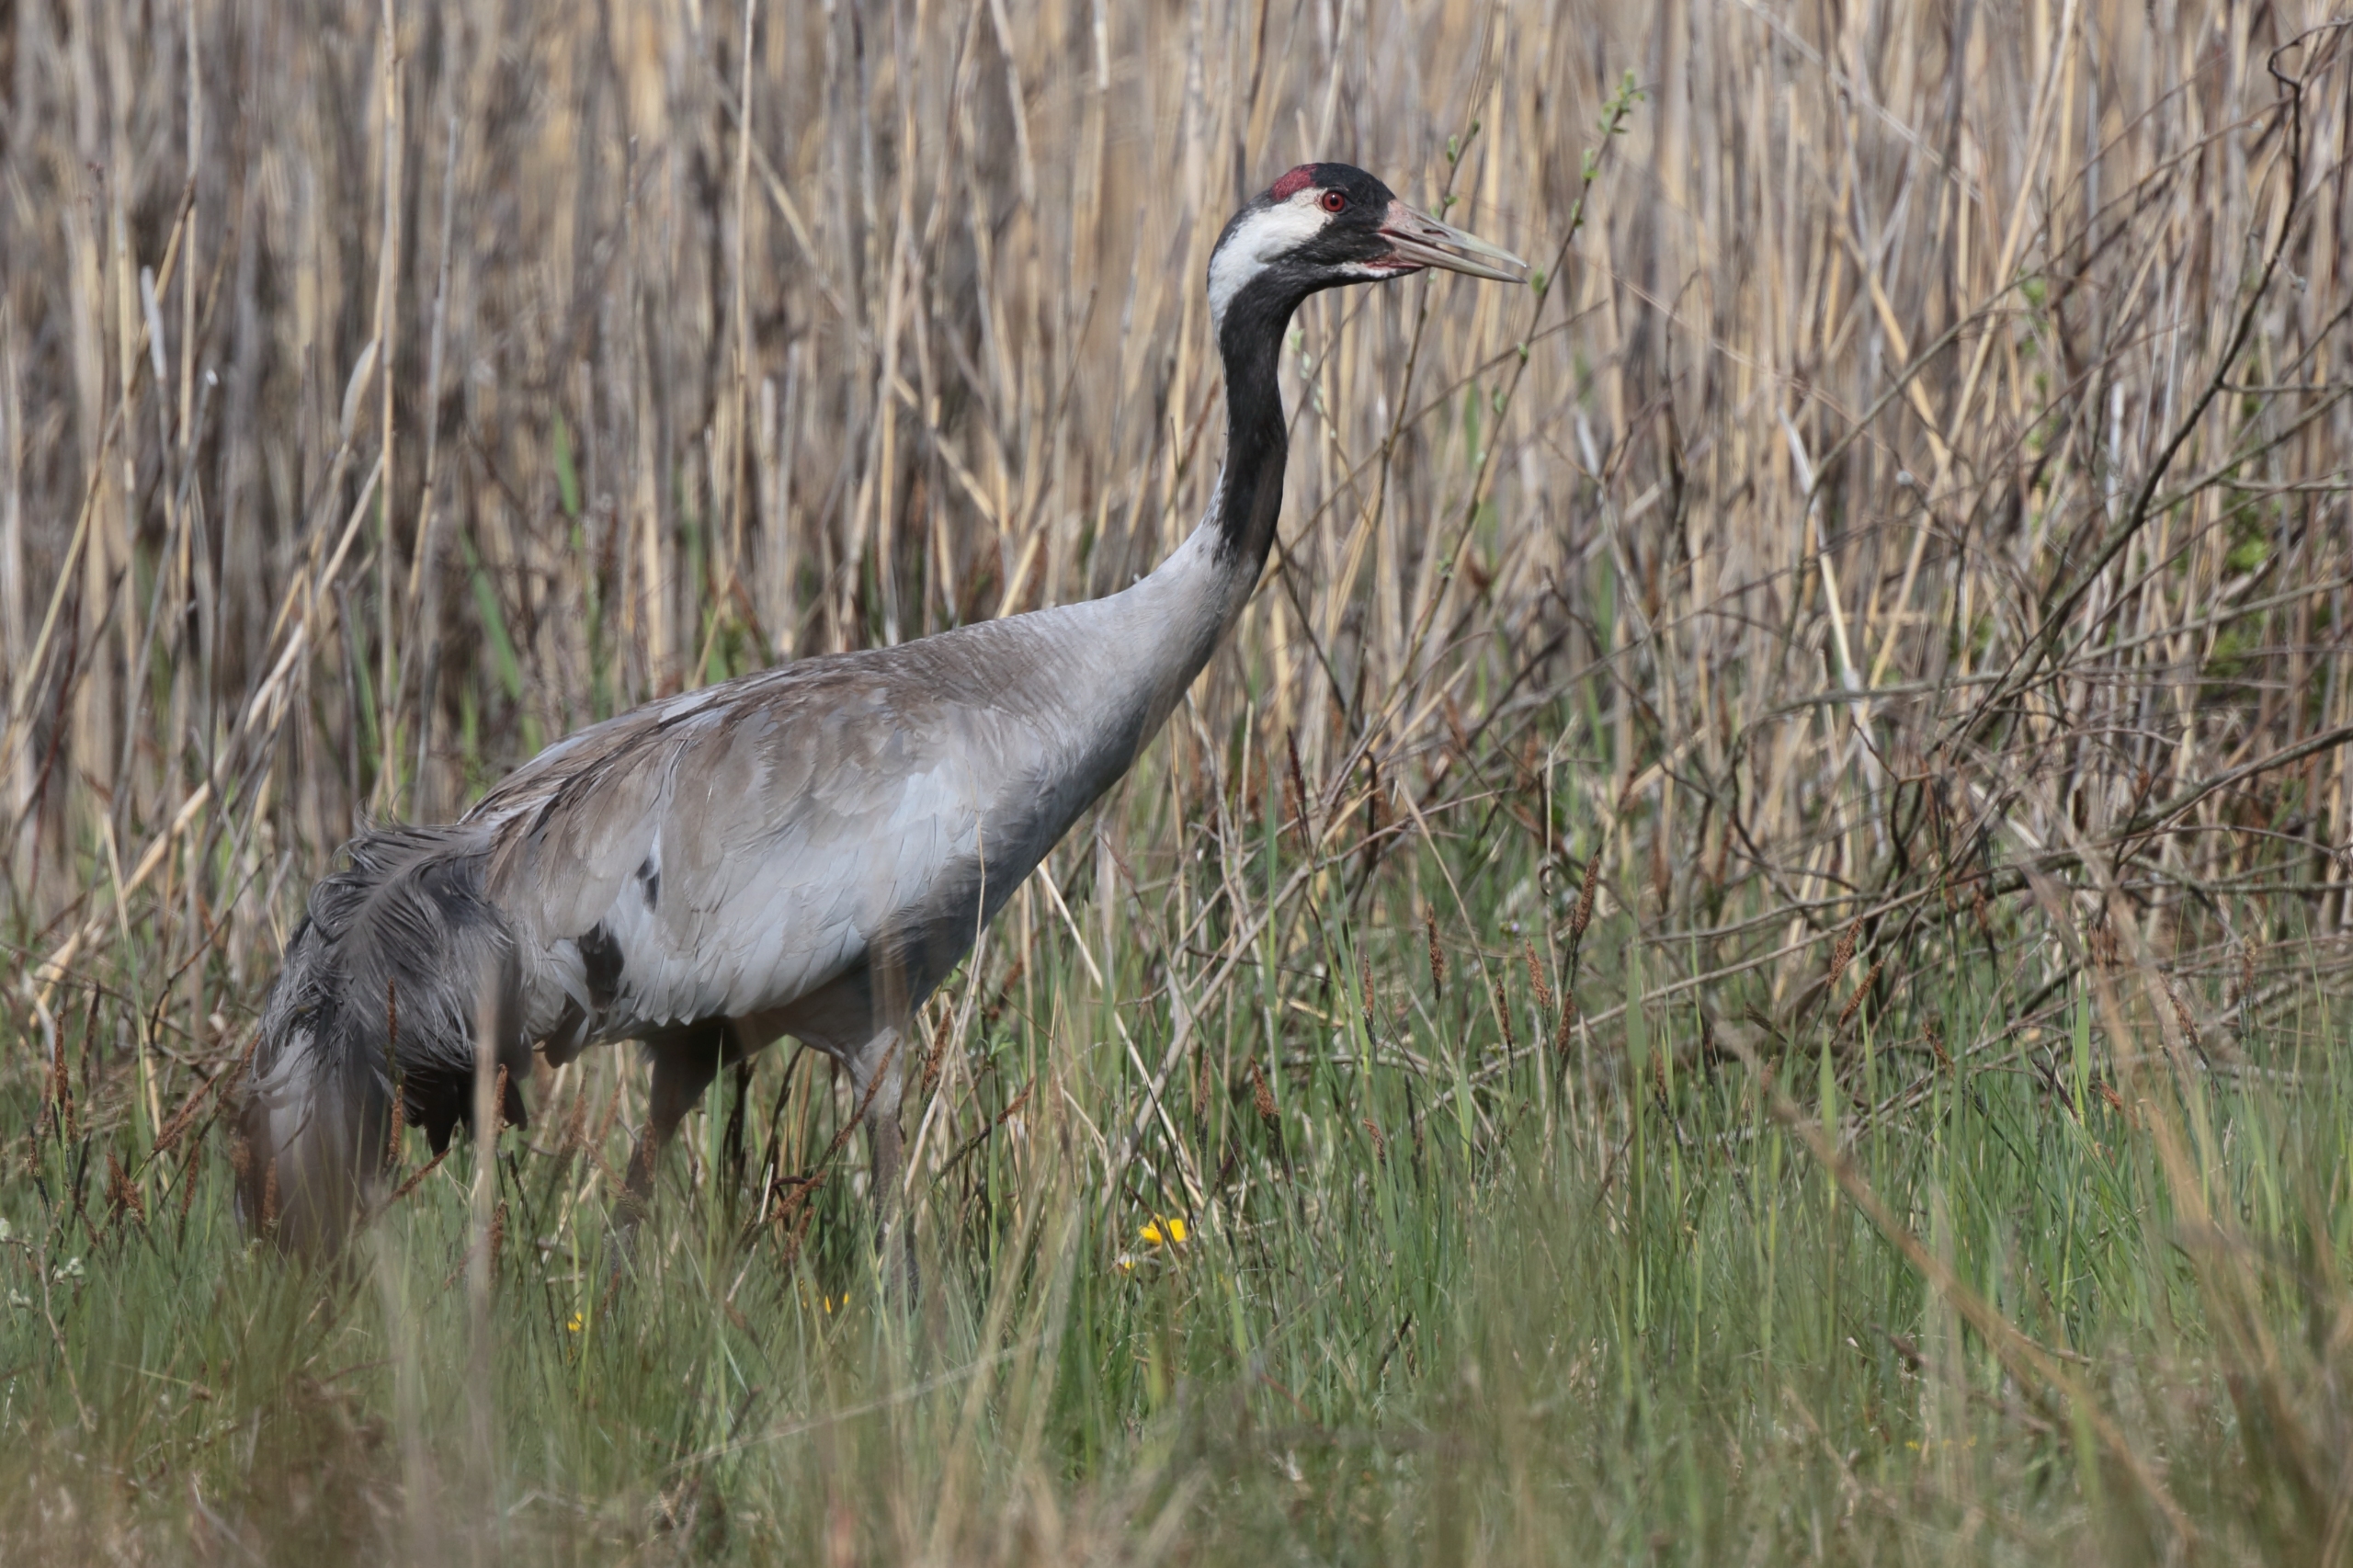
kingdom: Animalia
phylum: Chordata
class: Aves
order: Gruiformes
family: Gruidae
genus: Grus
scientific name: Grus grus
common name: Trane
